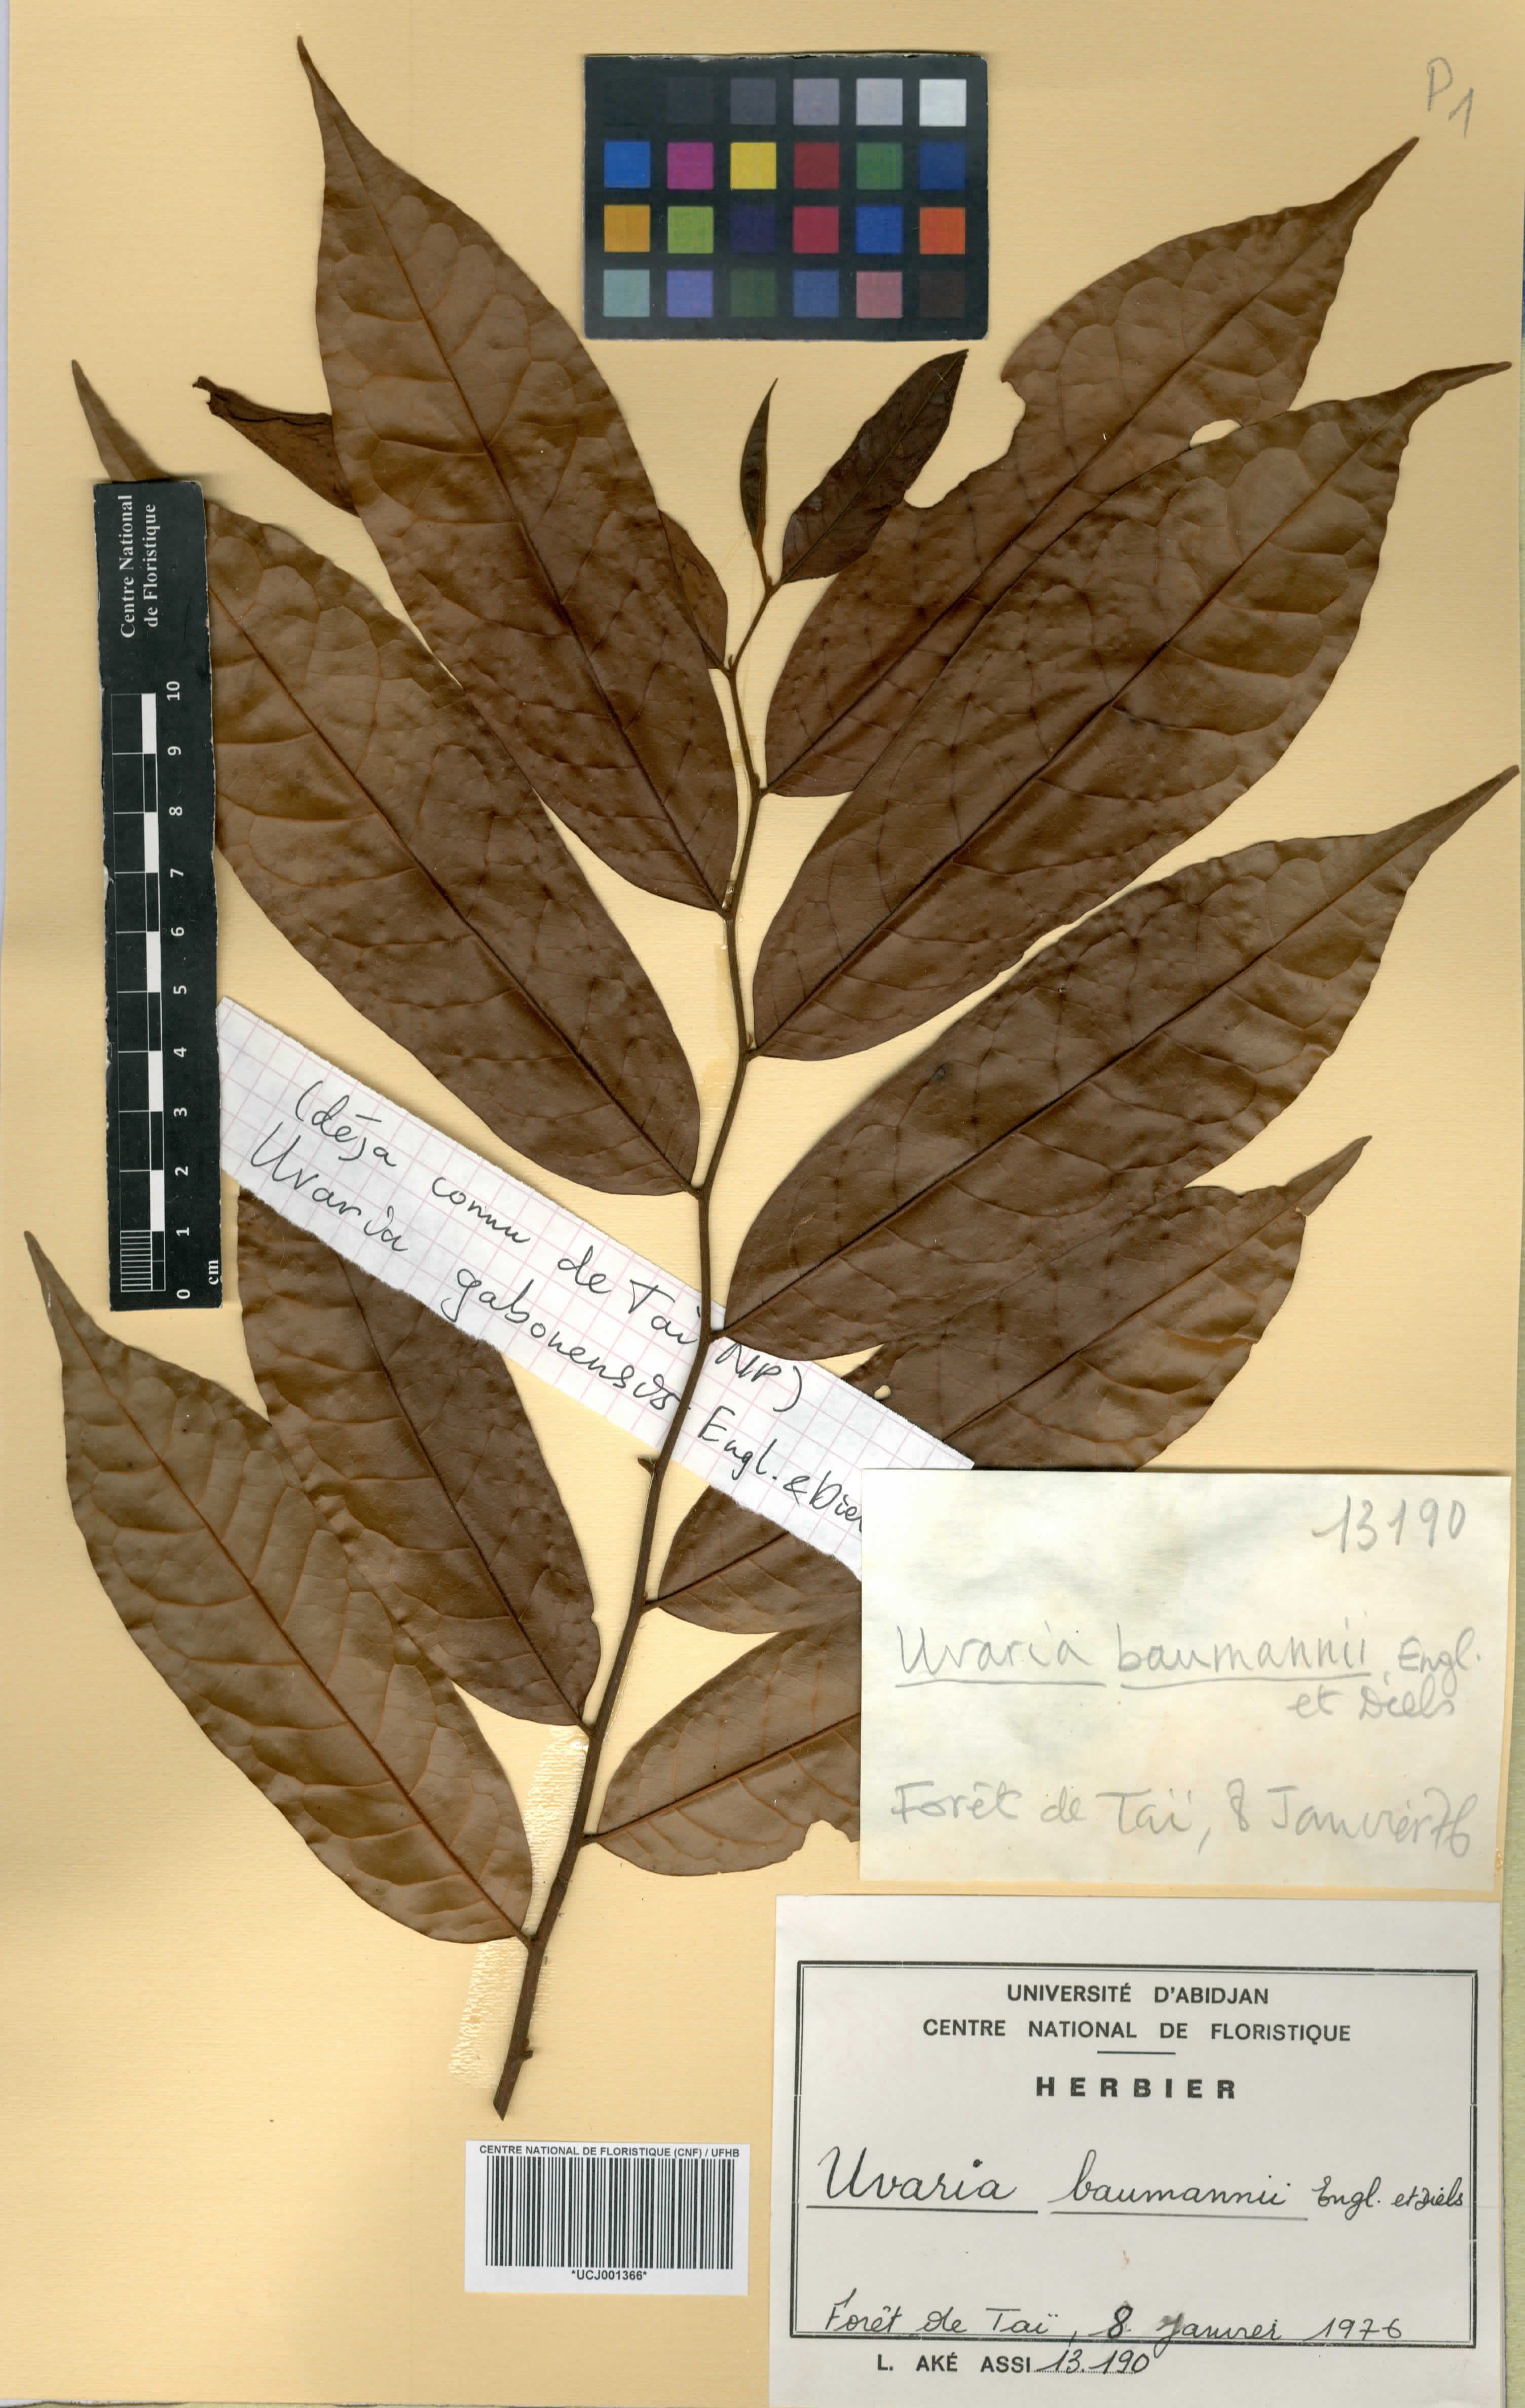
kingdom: Plantae
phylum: Tracheophyta
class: Magnoliopsida
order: Magnoliales
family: Annonaceae
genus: Uvaria
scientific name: Uvaria baumannii
